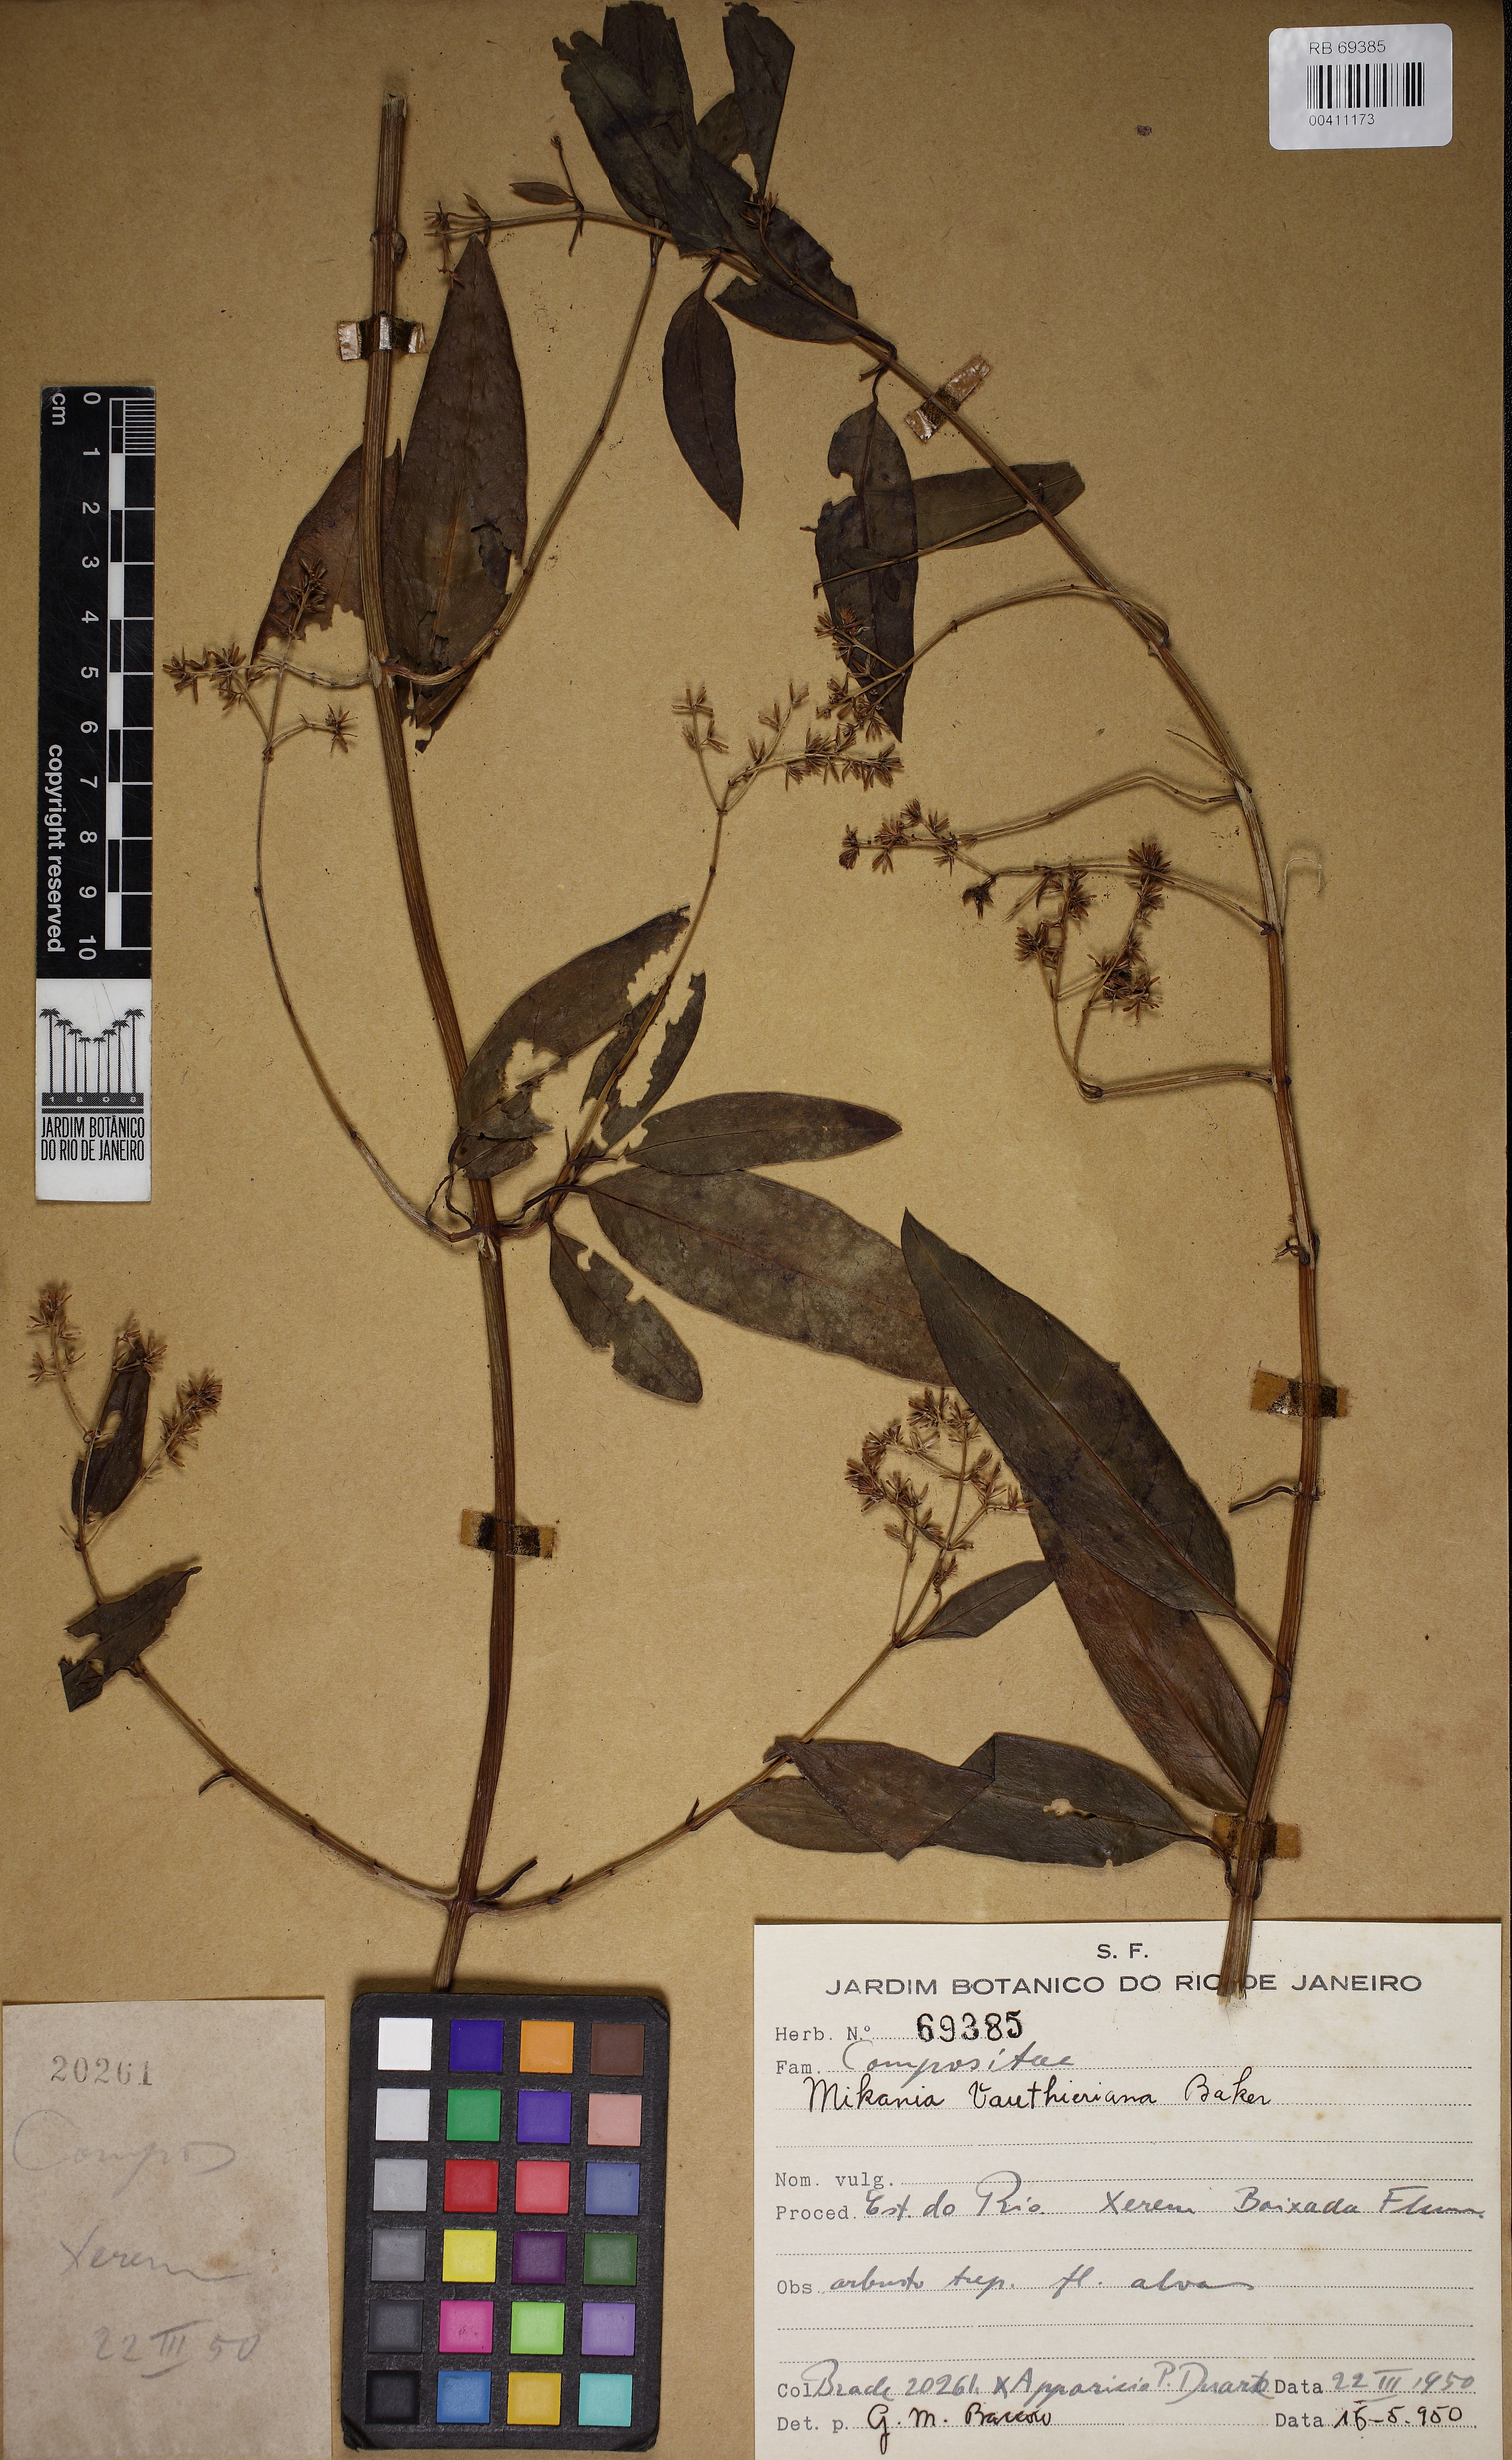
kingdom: Plantae
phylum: Tracheophyta
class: Magnoliopsida
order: Asterales
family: Asteraceae
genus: Mikania
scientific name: Mikania vauthieriana
